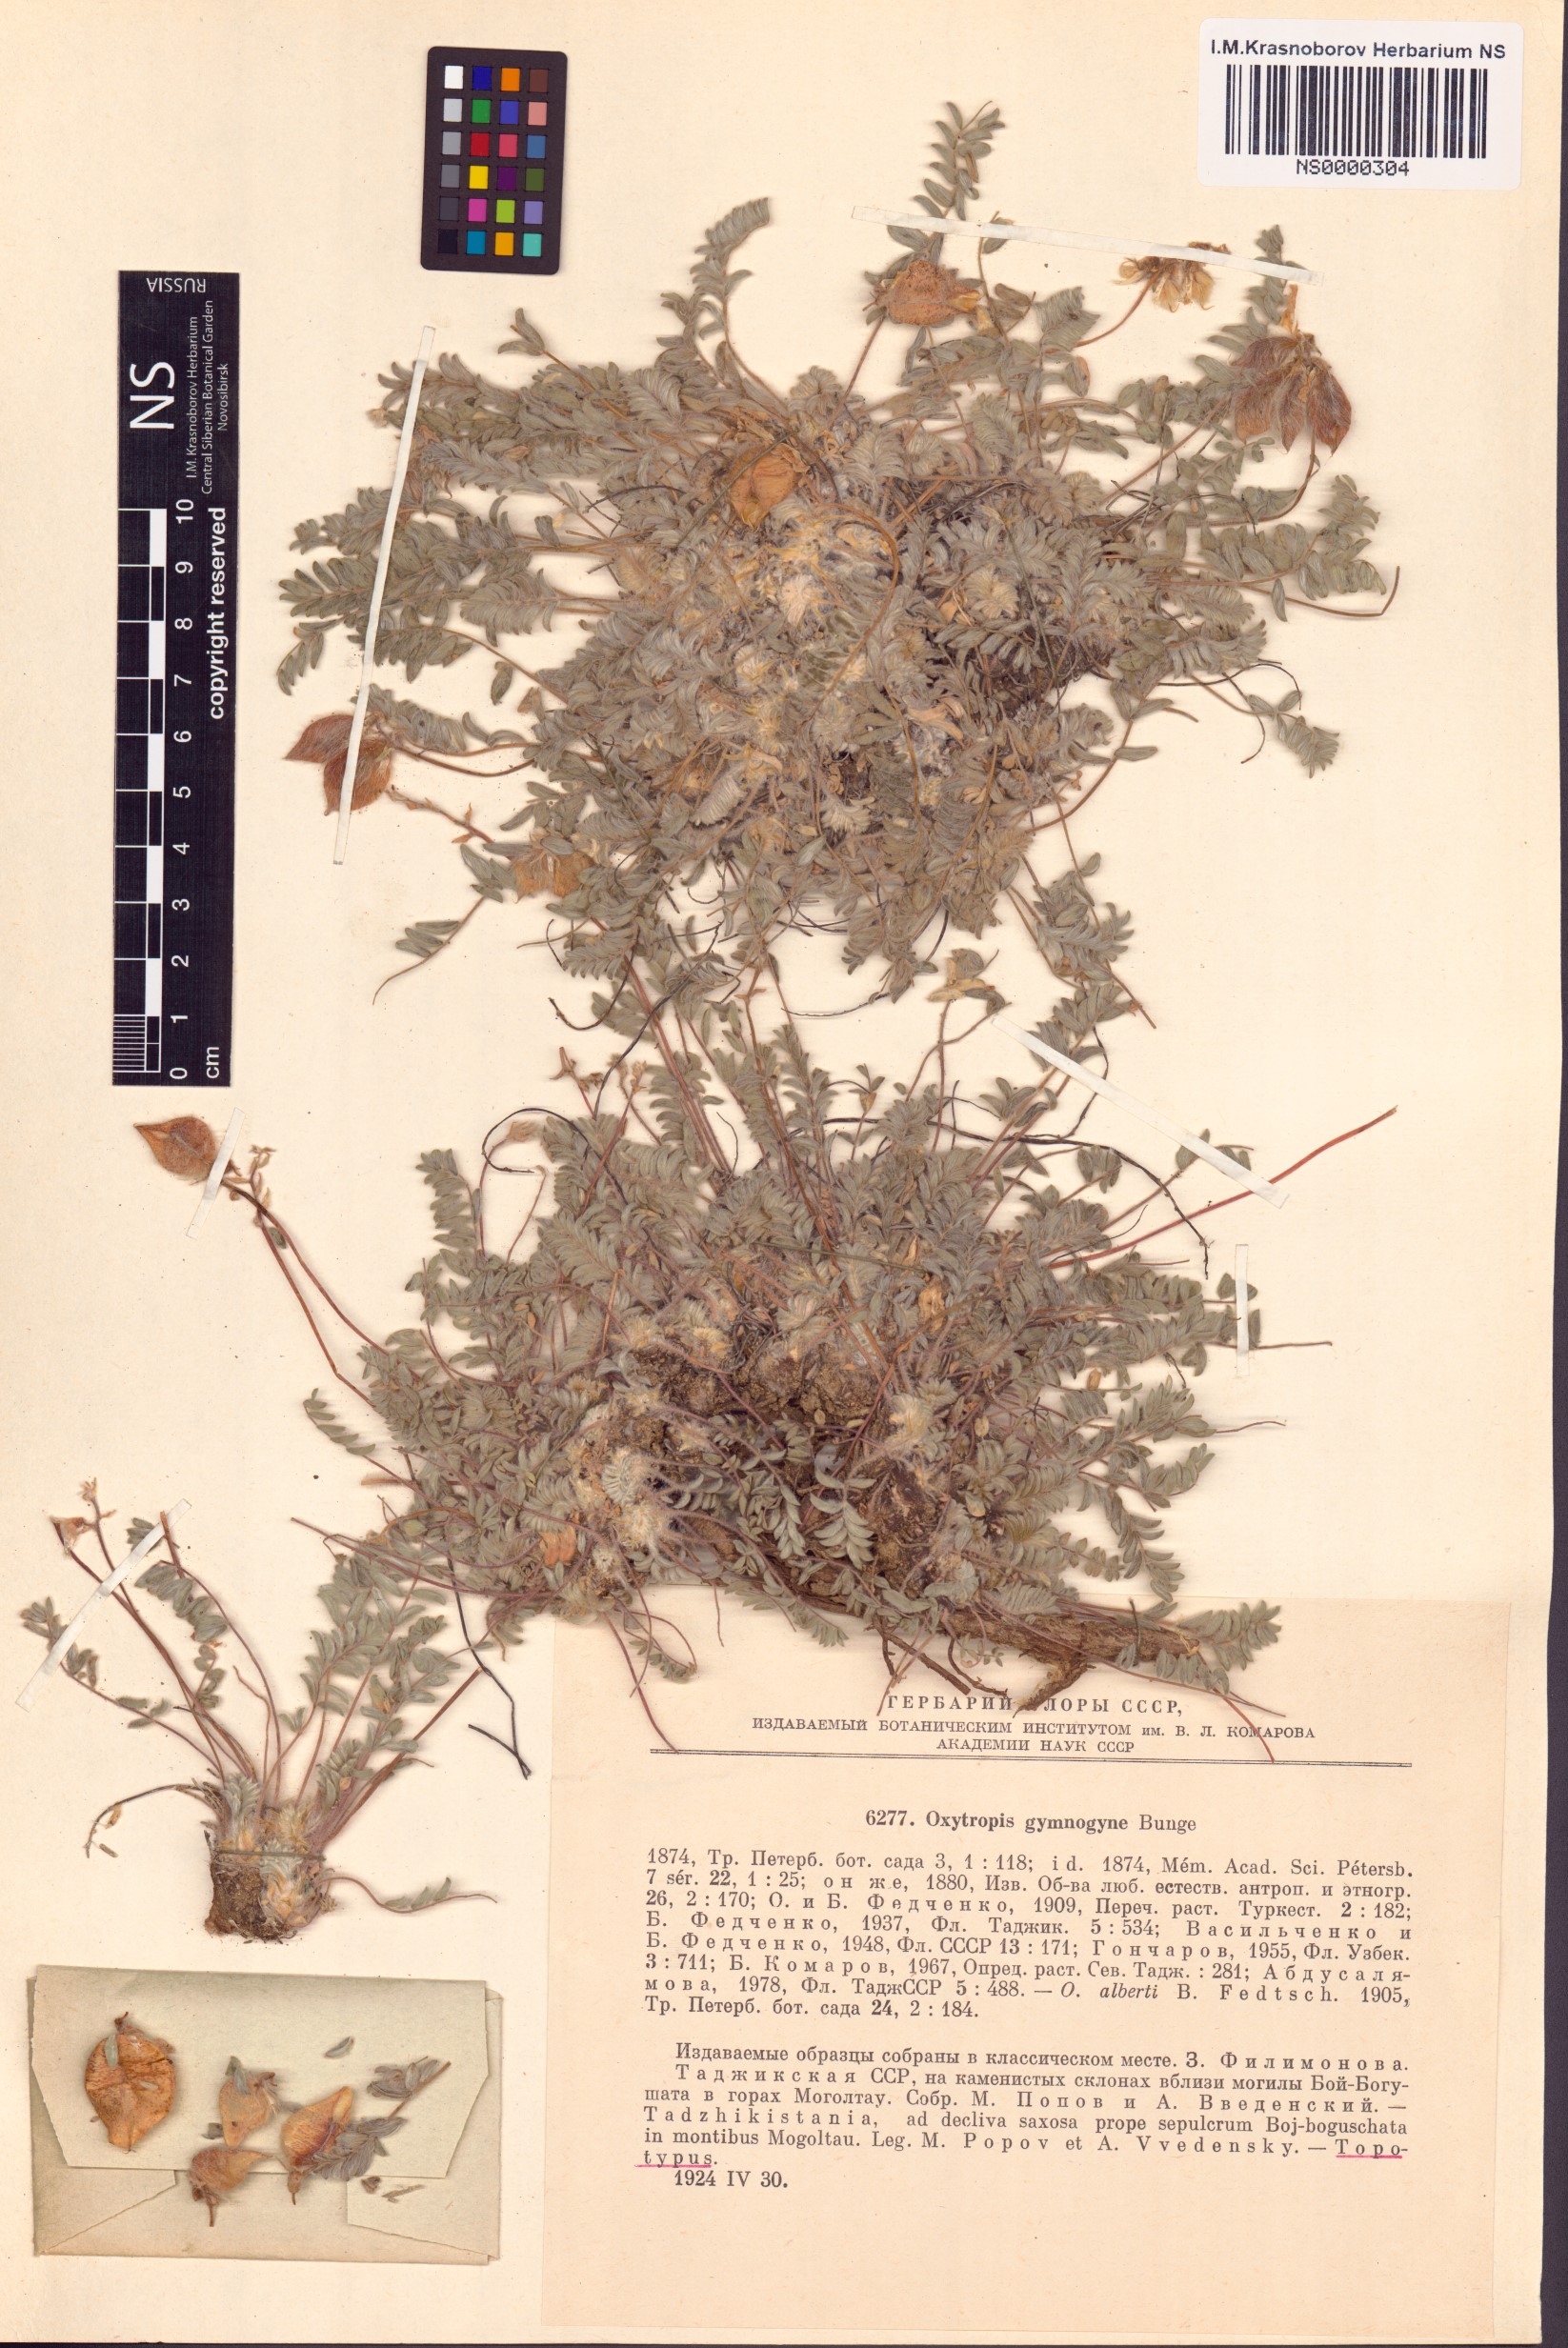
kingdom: Plantae
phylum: Tracheophyta
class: Magnoliopsida
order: Fabales
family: Fabaceae
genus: Oxytropis
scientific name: Oxytropis gymnogyne
